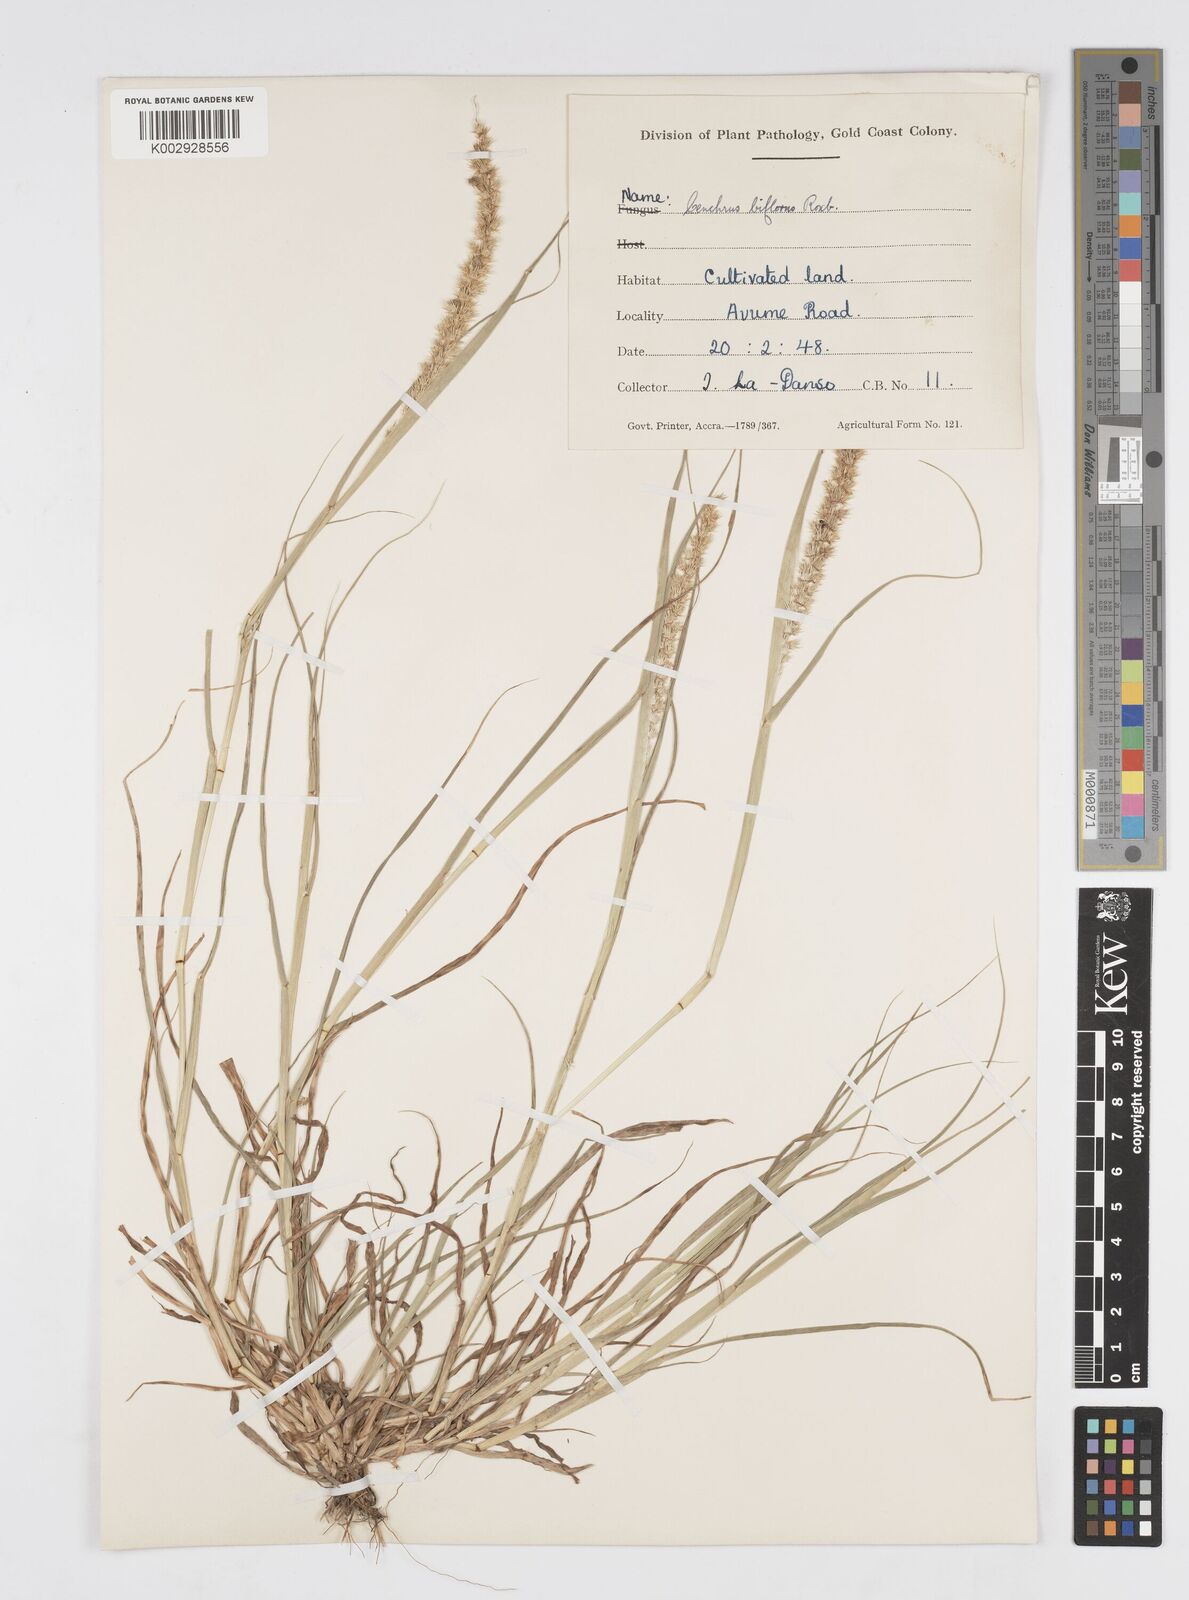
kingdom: Plantae
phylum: Tracheophyta
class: Liliopsida
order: Poales
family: Poaceae
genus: Cenchrus
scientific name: Cenchrus biflorus
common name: Indian sandbur
